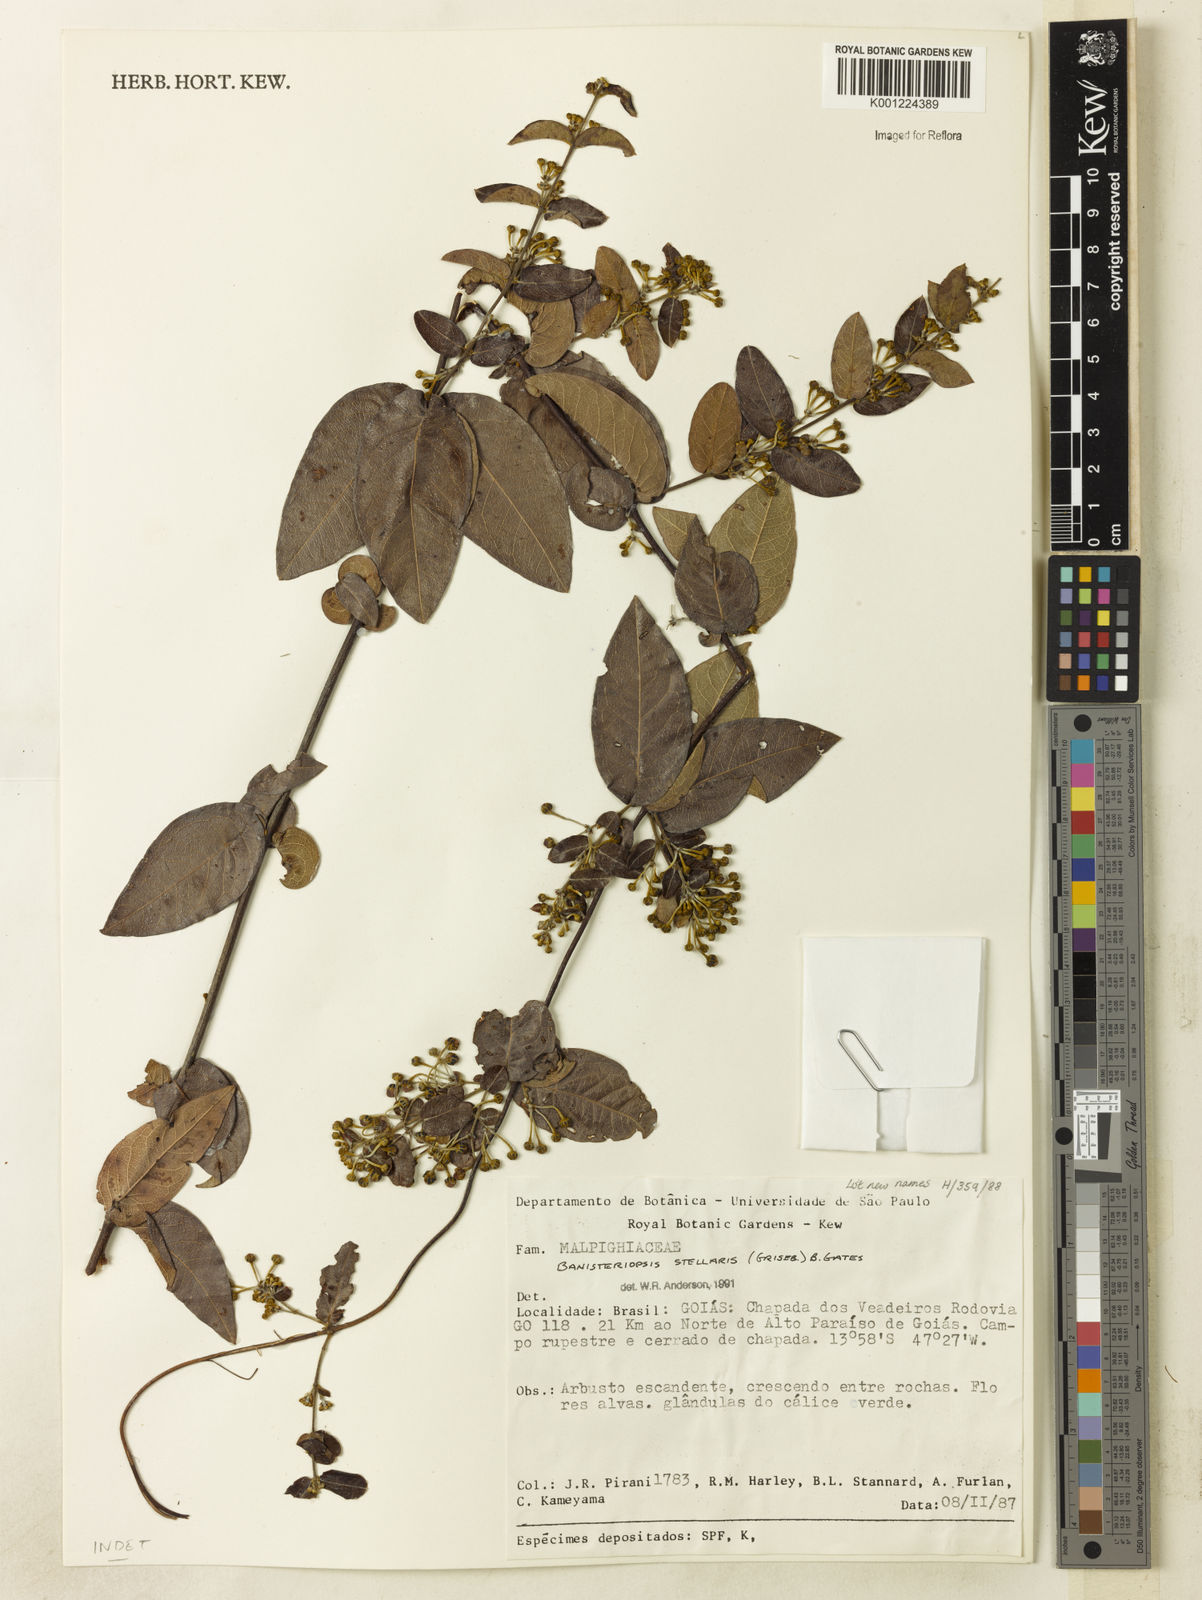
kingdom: Plantae
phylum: Tracheophyta
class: Magnoliopsida
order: Malpighiales
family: Malpighiaceae
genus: Banisteriopsis
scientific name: Banisteriopsis stellaris
